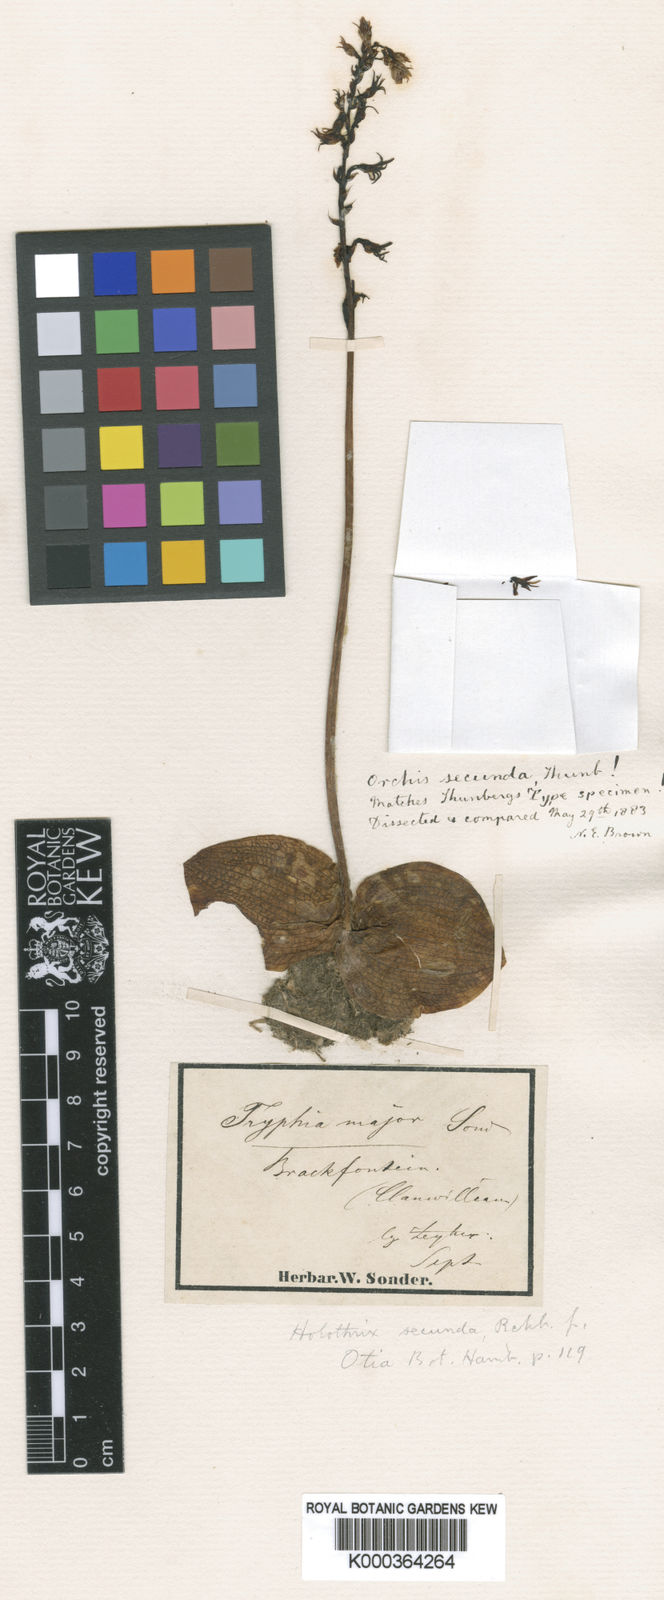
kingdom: Plantae
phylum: Tracheophyta
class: Liliopsida
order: Asparagales
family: Orchidaceae
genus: Holothrix
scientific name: Holothrix secunda
